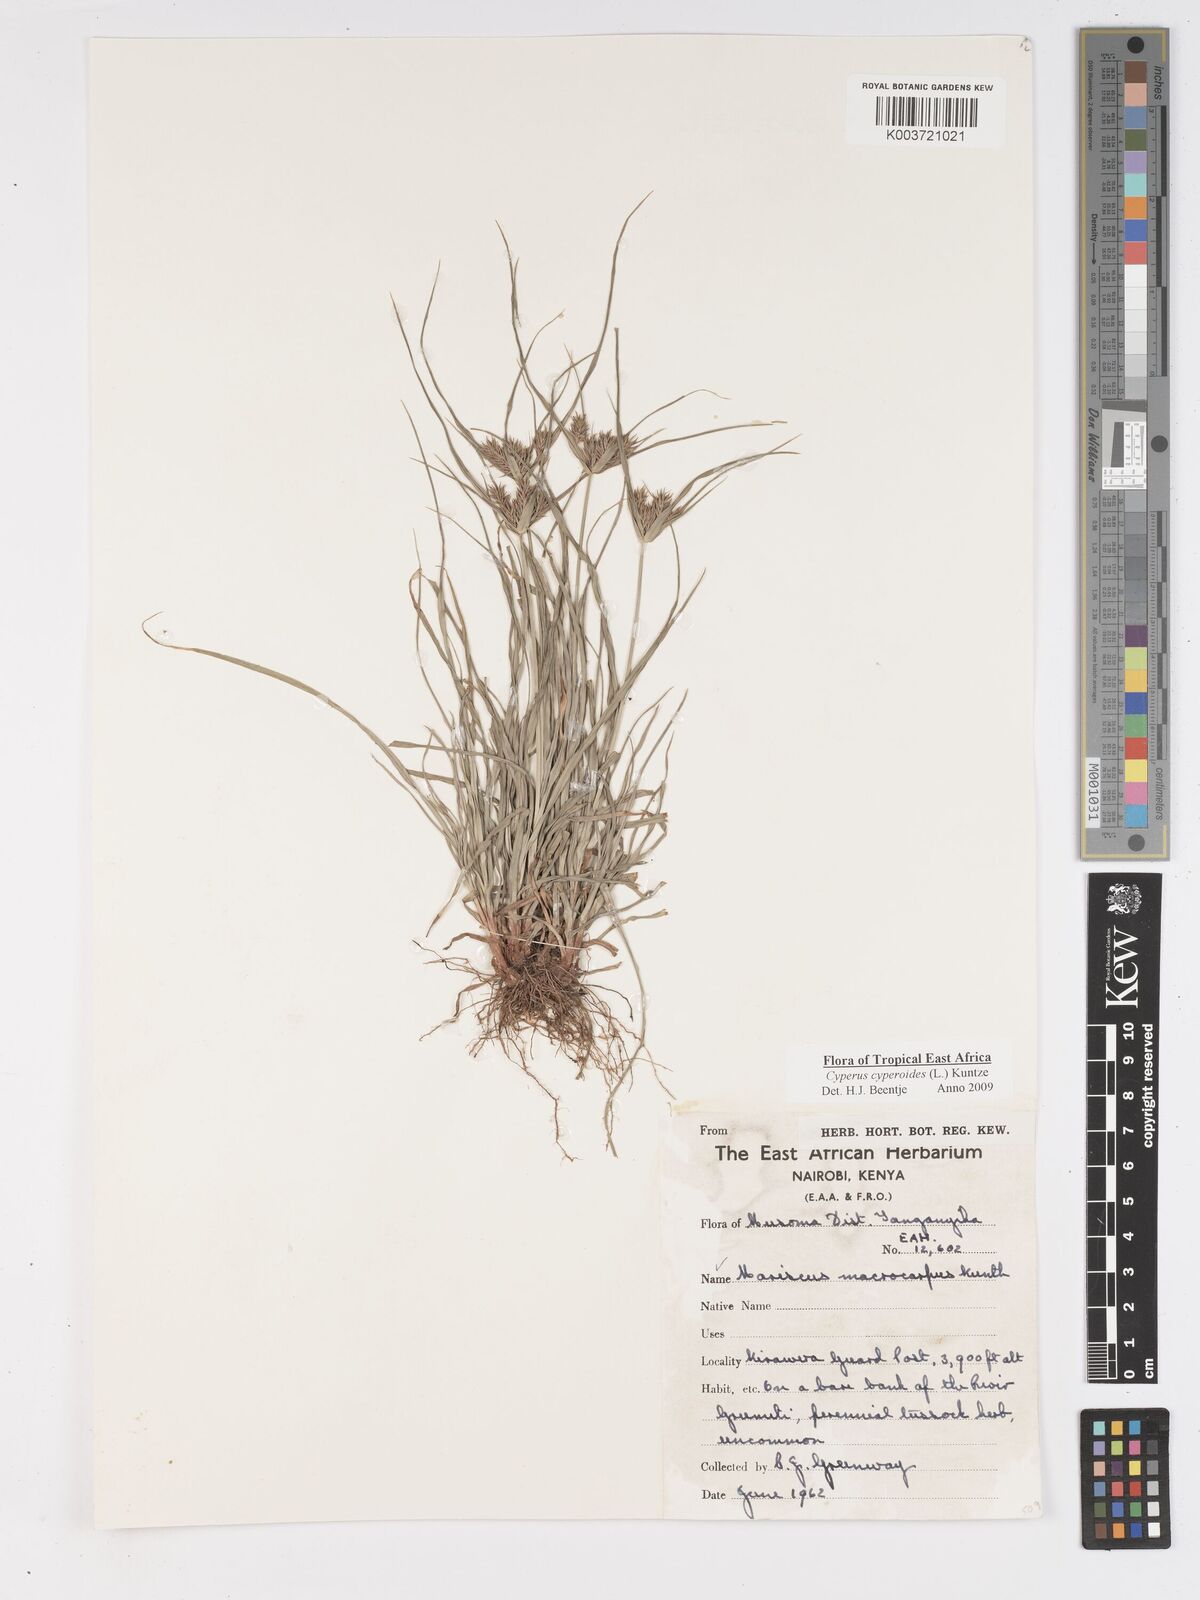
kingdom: Plantae
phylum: Tracheophyta
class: Liliopsida
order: Poales
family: Cyperaceae
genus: Cyperus
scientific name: Cyperus cyperoides
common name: Pacific island flat sedge
